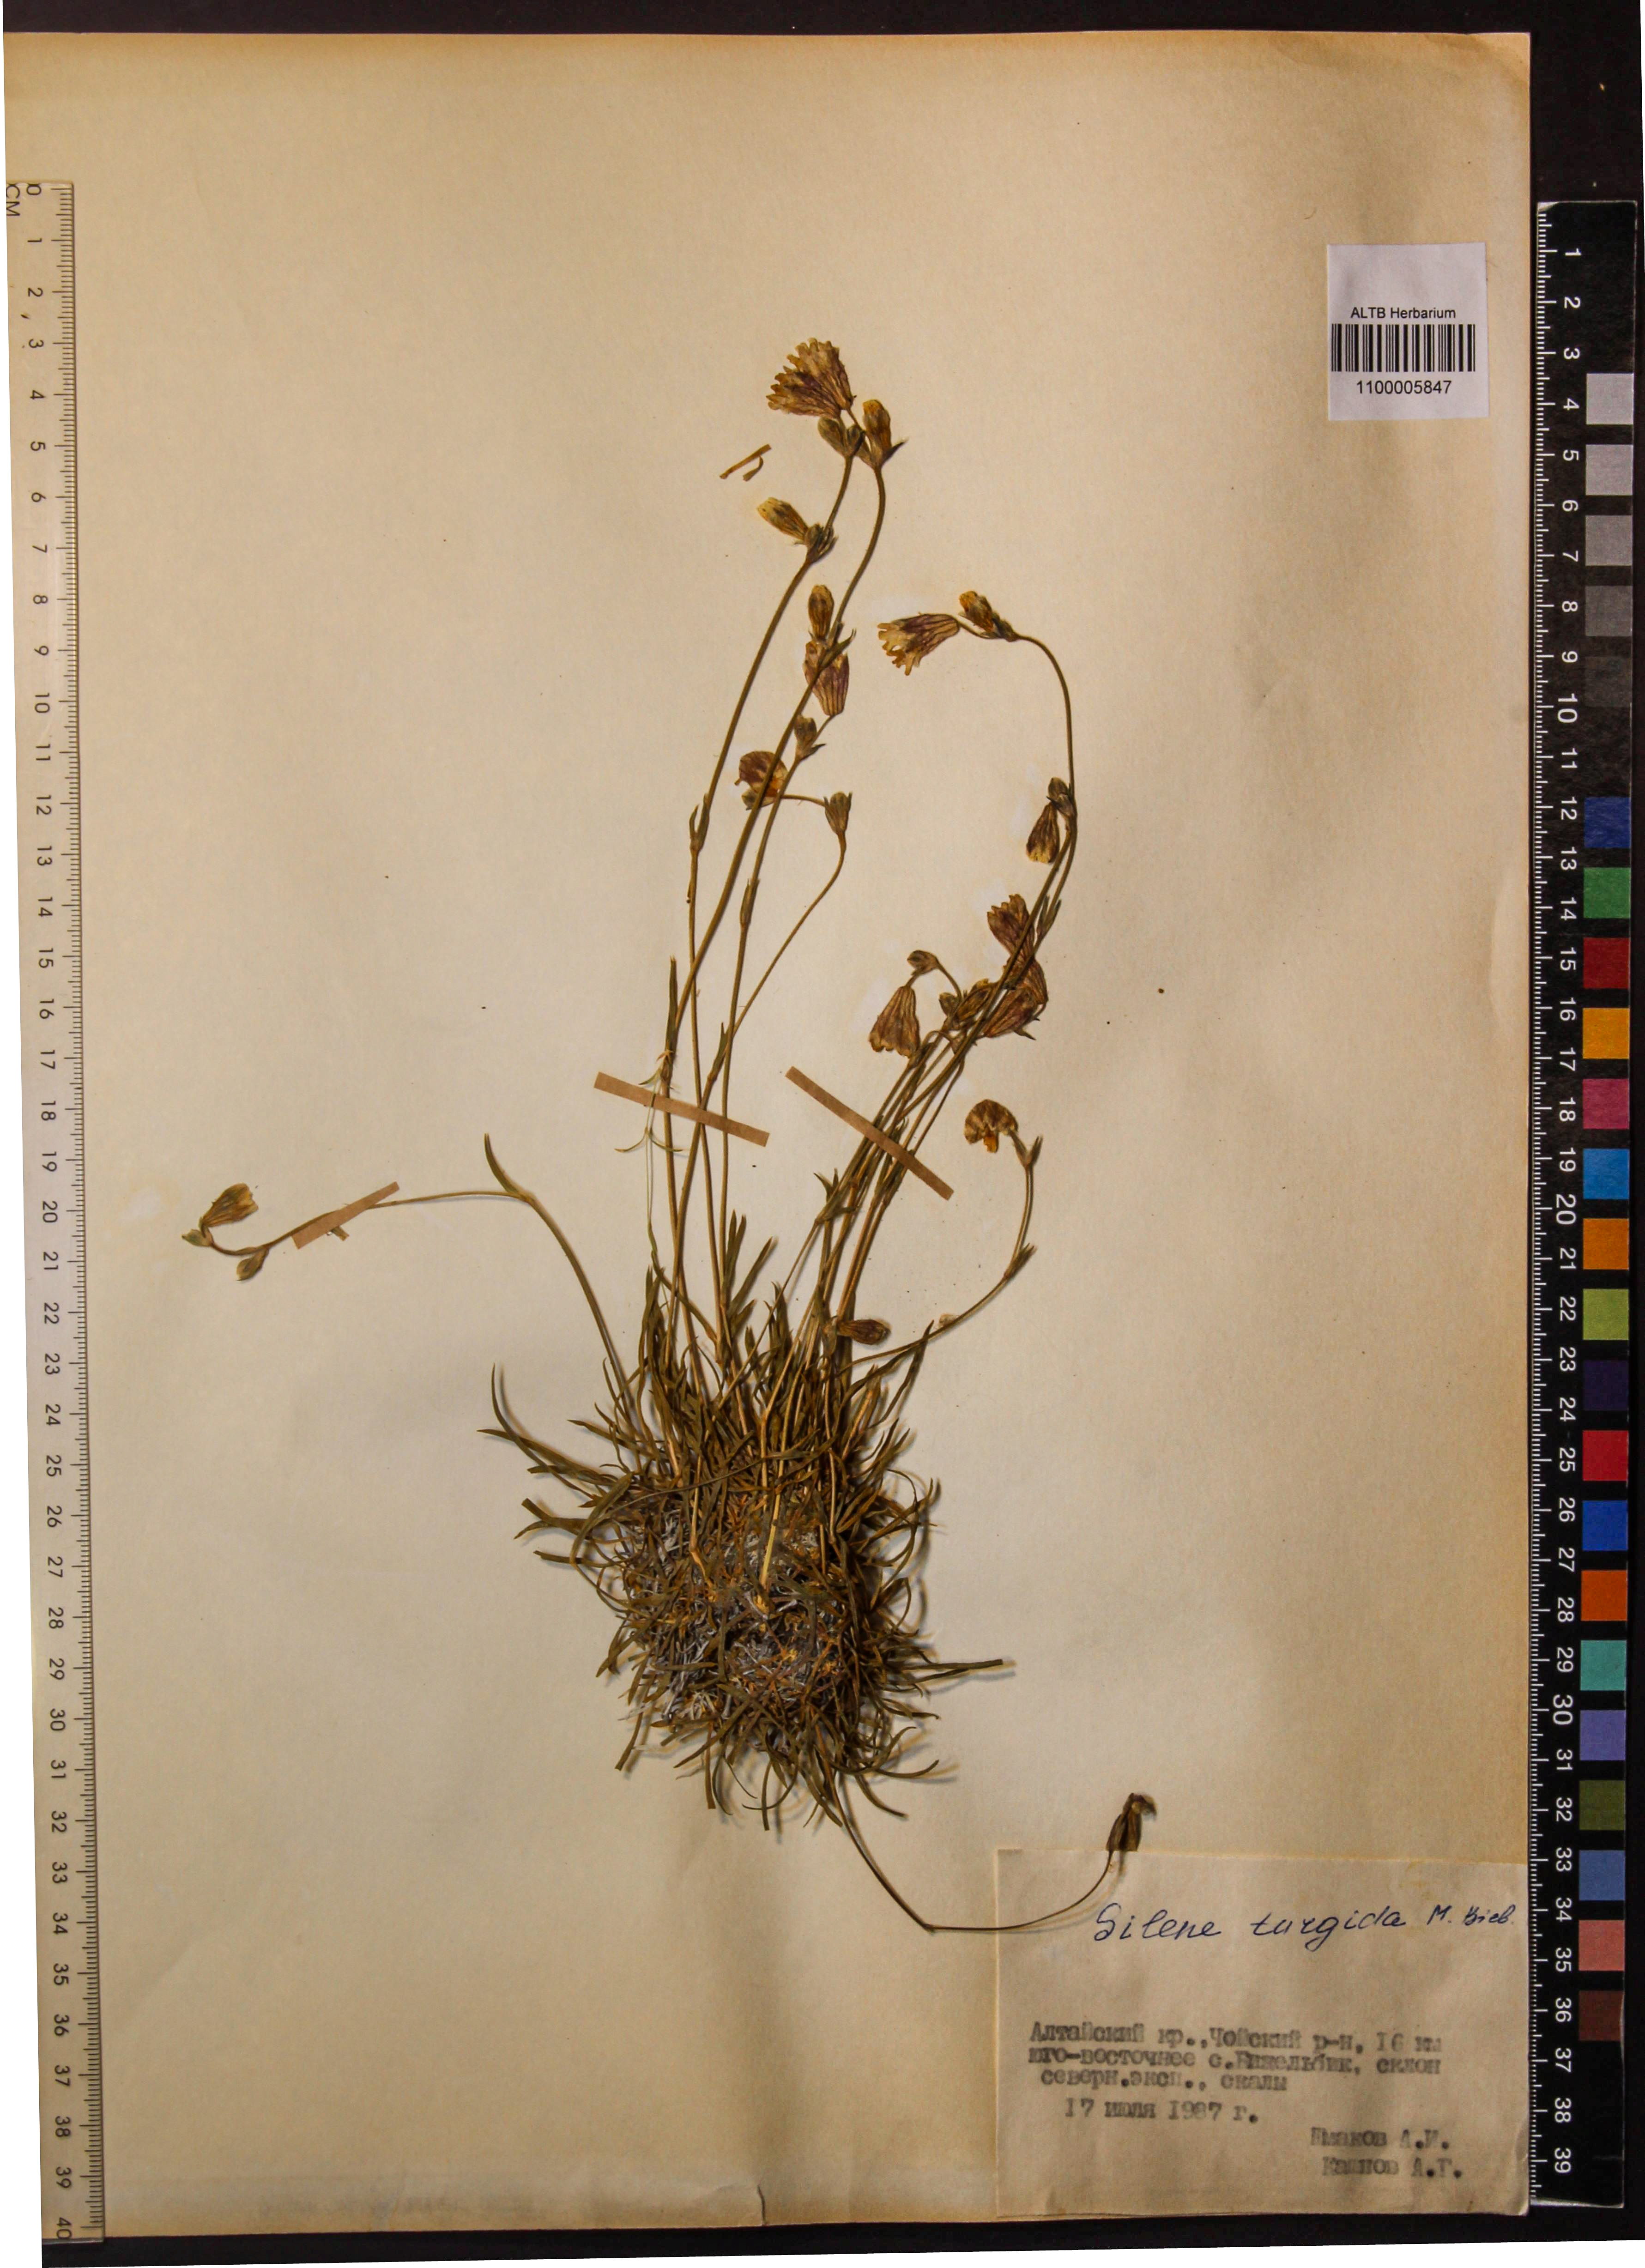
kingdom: Plantae
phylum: Tracheophyta
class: Magnoliopsida
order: Caryophyllales
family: Caryophyllaceae
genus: Silene
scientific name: Silene turgida
